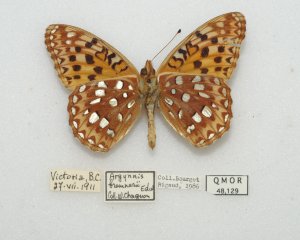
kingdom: Animalia
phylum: Arthropoda
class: Insecta
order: Lepidoptera
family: Nymphalidae
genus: Speyeria
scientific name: Speyeria zerene
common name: Zerene Fritillary
